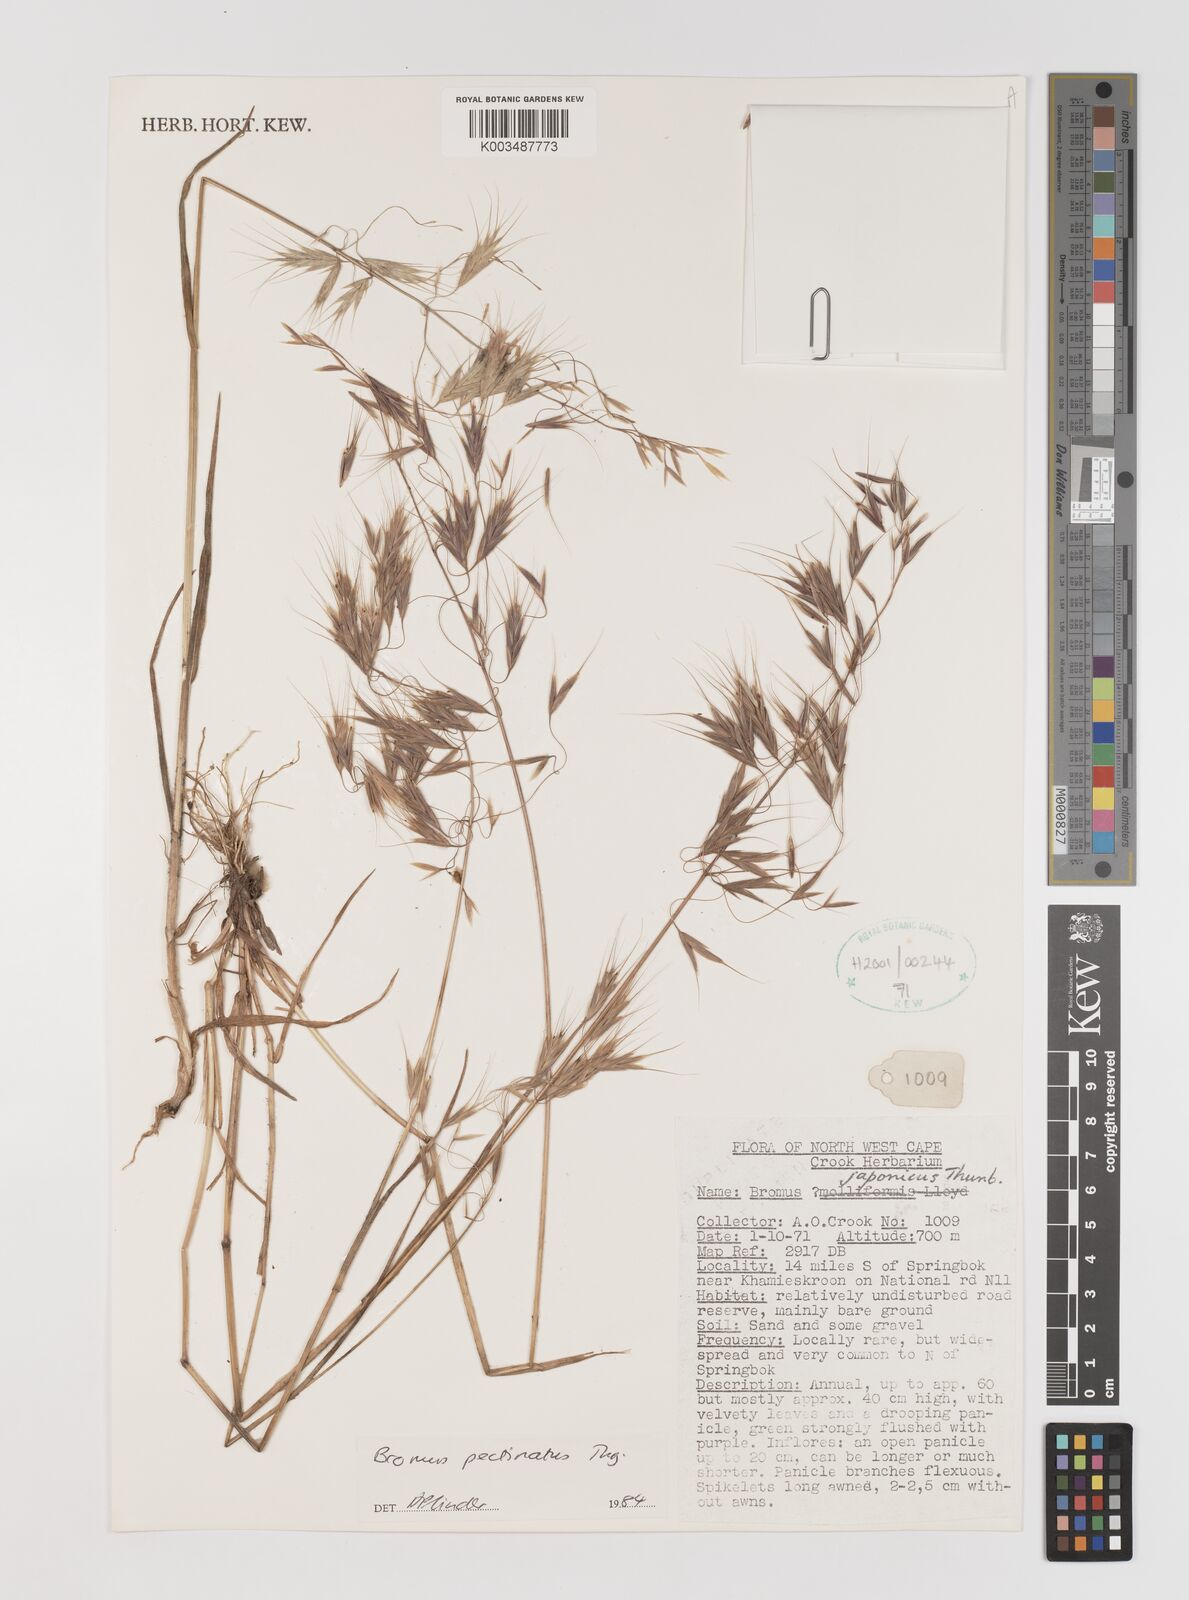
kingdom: Plantae
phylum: Tracheophyta
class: Liliopsida
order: Poales
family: Poaceae
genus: Bromus
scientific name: Bromus pectinatus
